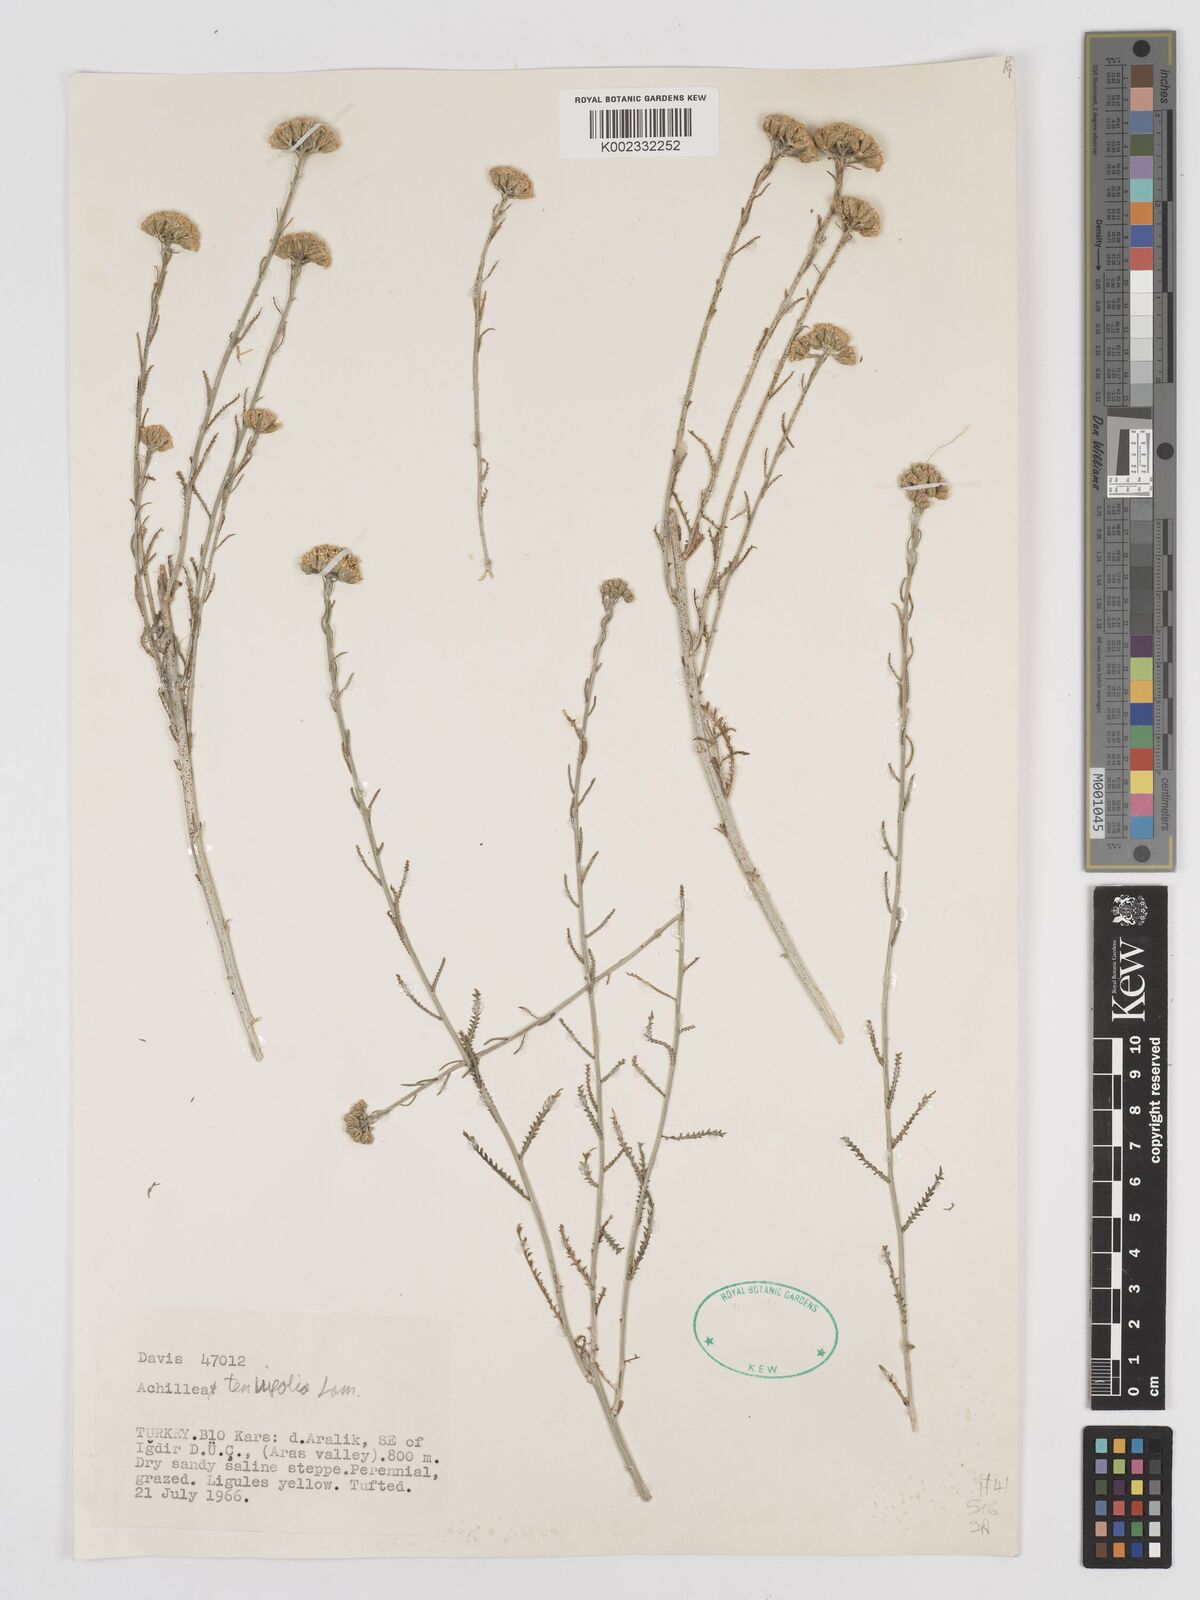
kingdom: Plantae
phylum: Tracheophyta
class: Magnoliopsida
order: Asterales
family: Asteraceae
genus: Achillea
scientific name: Achillea tenuifolia
